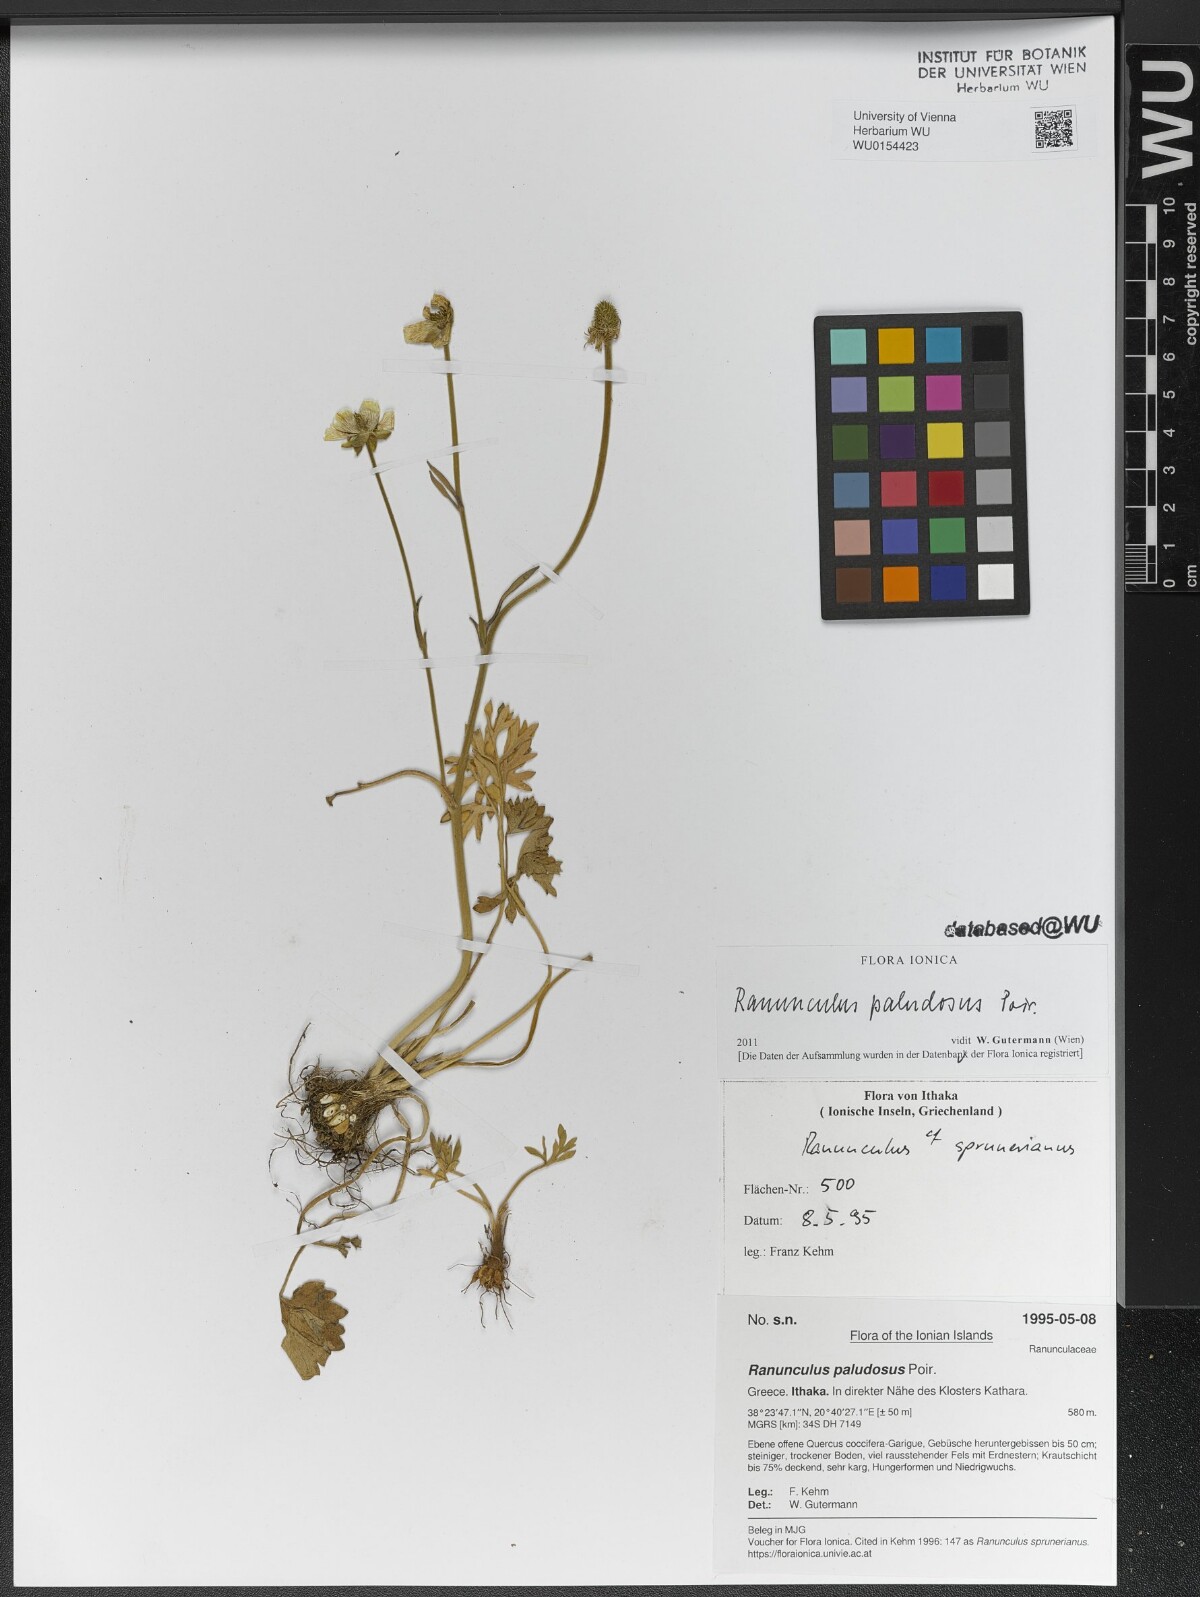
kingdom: Plantae
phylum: Tracheophyta
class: Magnoliopsida
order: Ranunculales
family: Ranunculaceae
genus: Ranunculus
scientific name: Ranunculus paludosus
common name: Jersey buttercup
